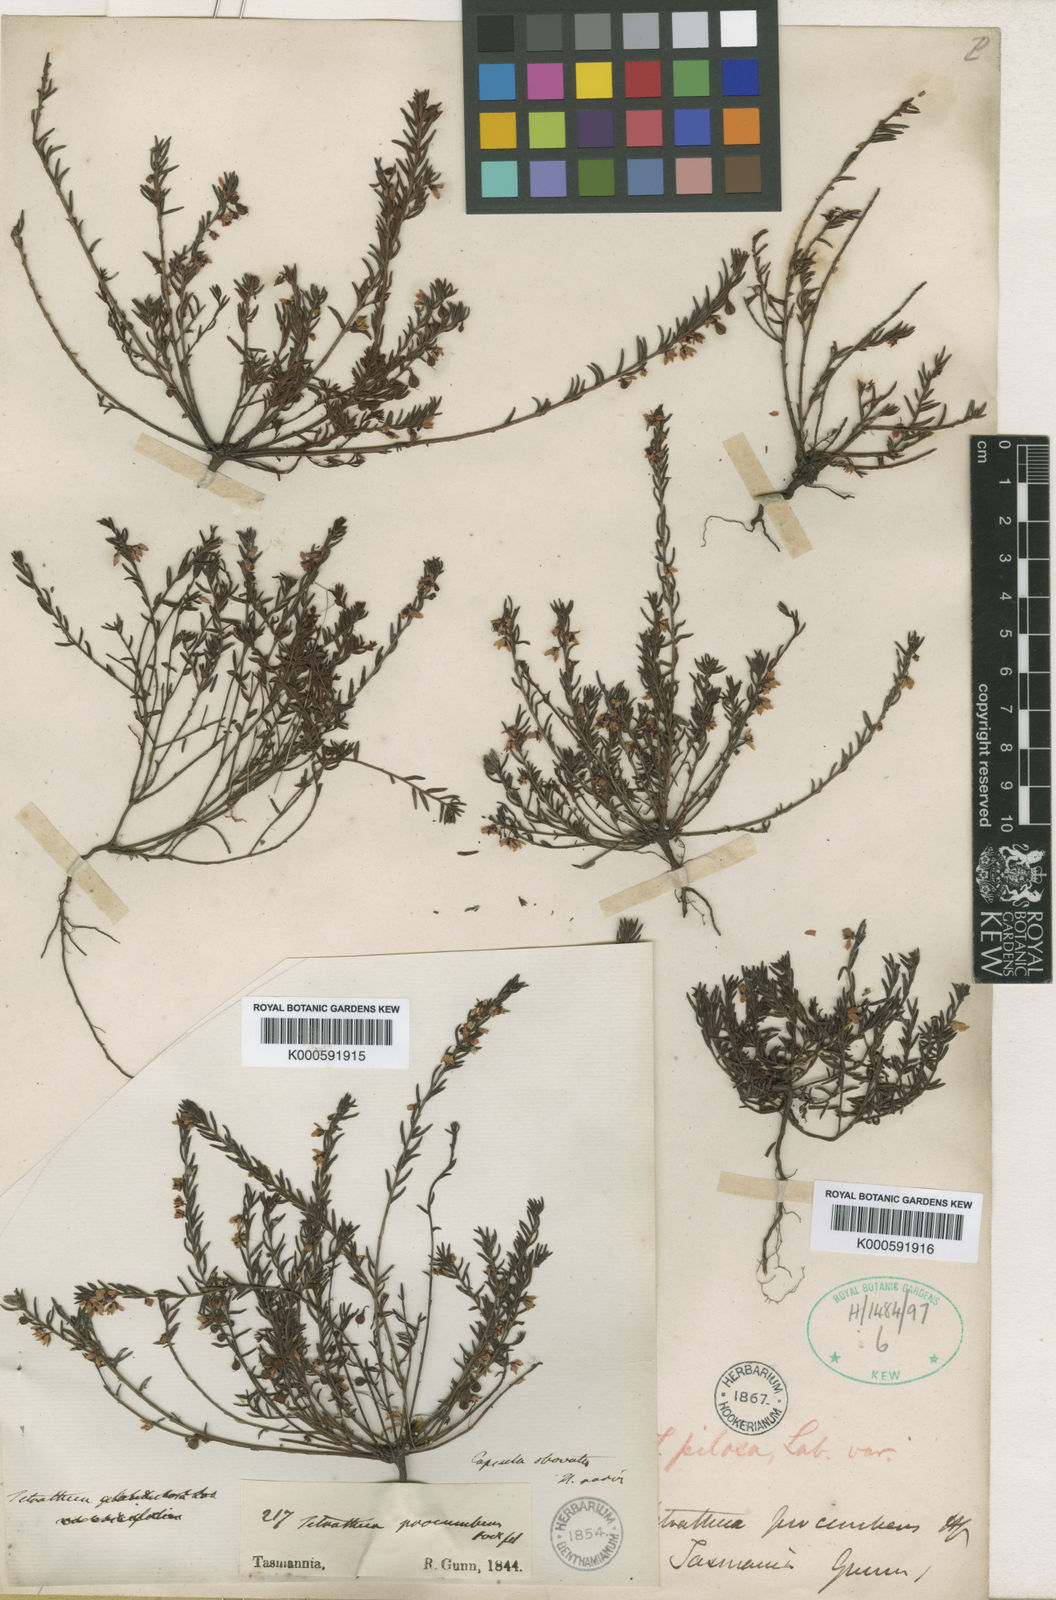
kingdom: Plantae
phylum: Tracheophyta
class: Magnoliopsida
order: Oxalidales
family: Elaeocarpaceae
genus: Tetratheca
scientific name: Tetratheca pilosa
